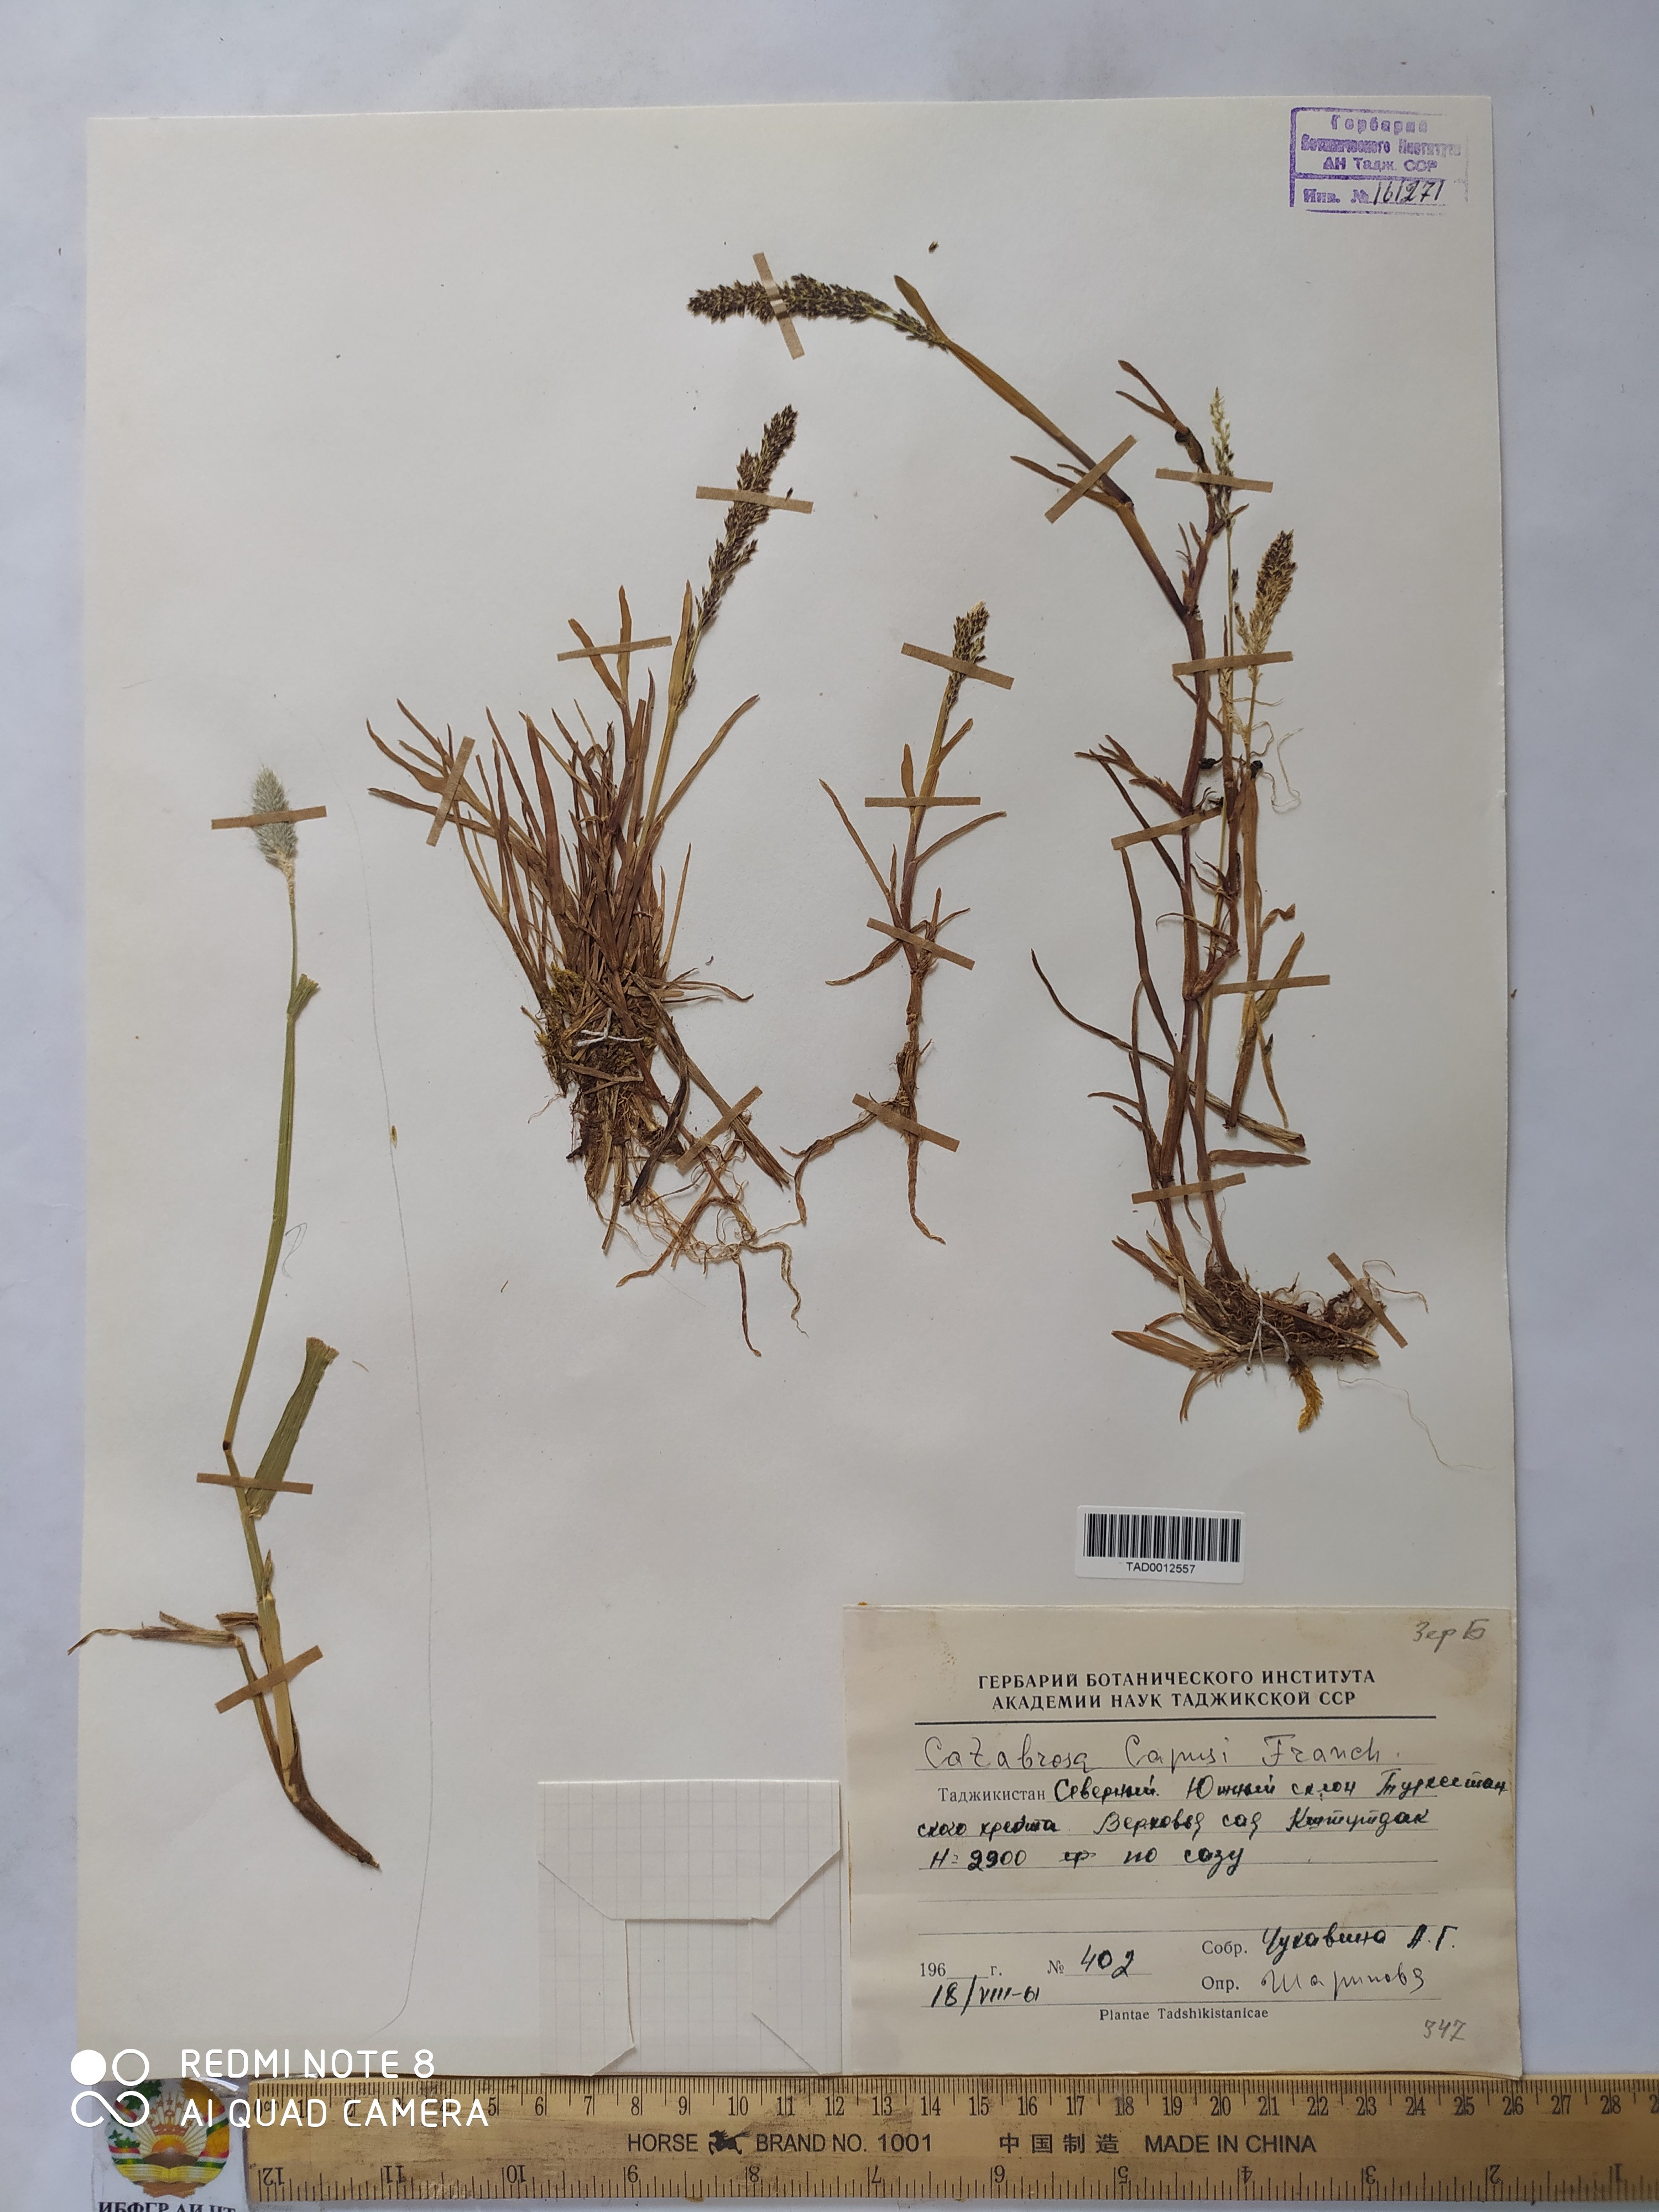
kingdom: Plantae
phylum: Tracheophyta
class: Liliopsida
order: Poales
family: Poaceae
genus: Catabrosa
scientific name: Catabrosa aquatica
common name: Whorl-grass
